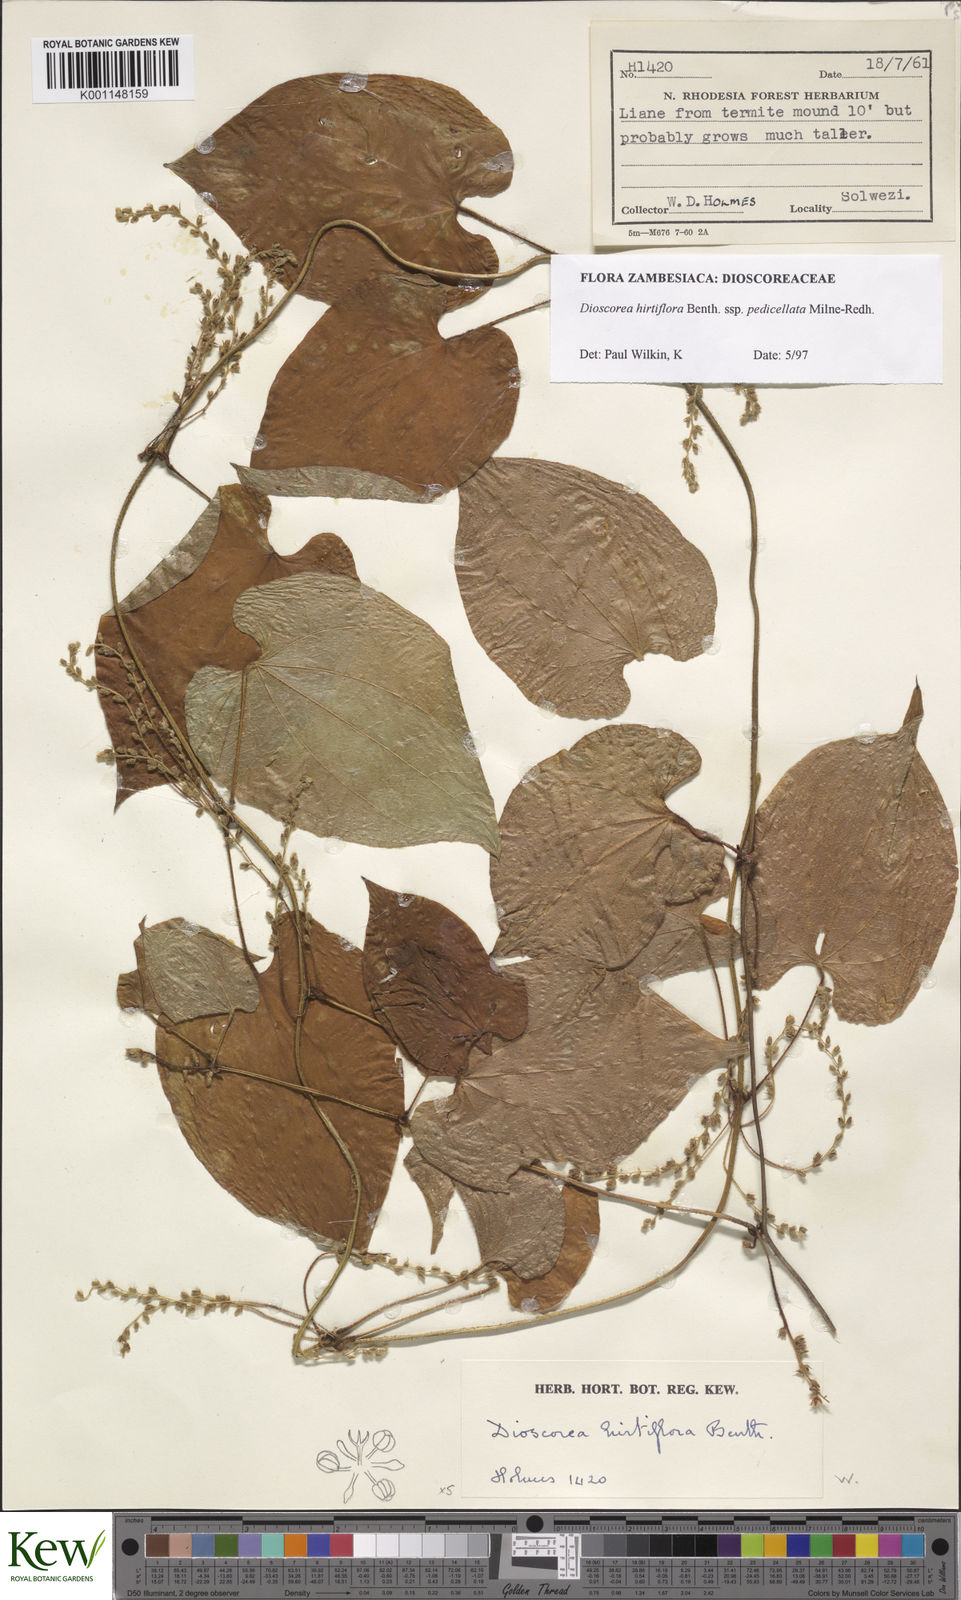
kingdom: Plantae
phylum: Tracheophyta
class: Liliopsida
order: Dioscoreales
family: Dioscoreaceae
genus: Dioscorea
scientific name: Dioscorea hirtiflora
